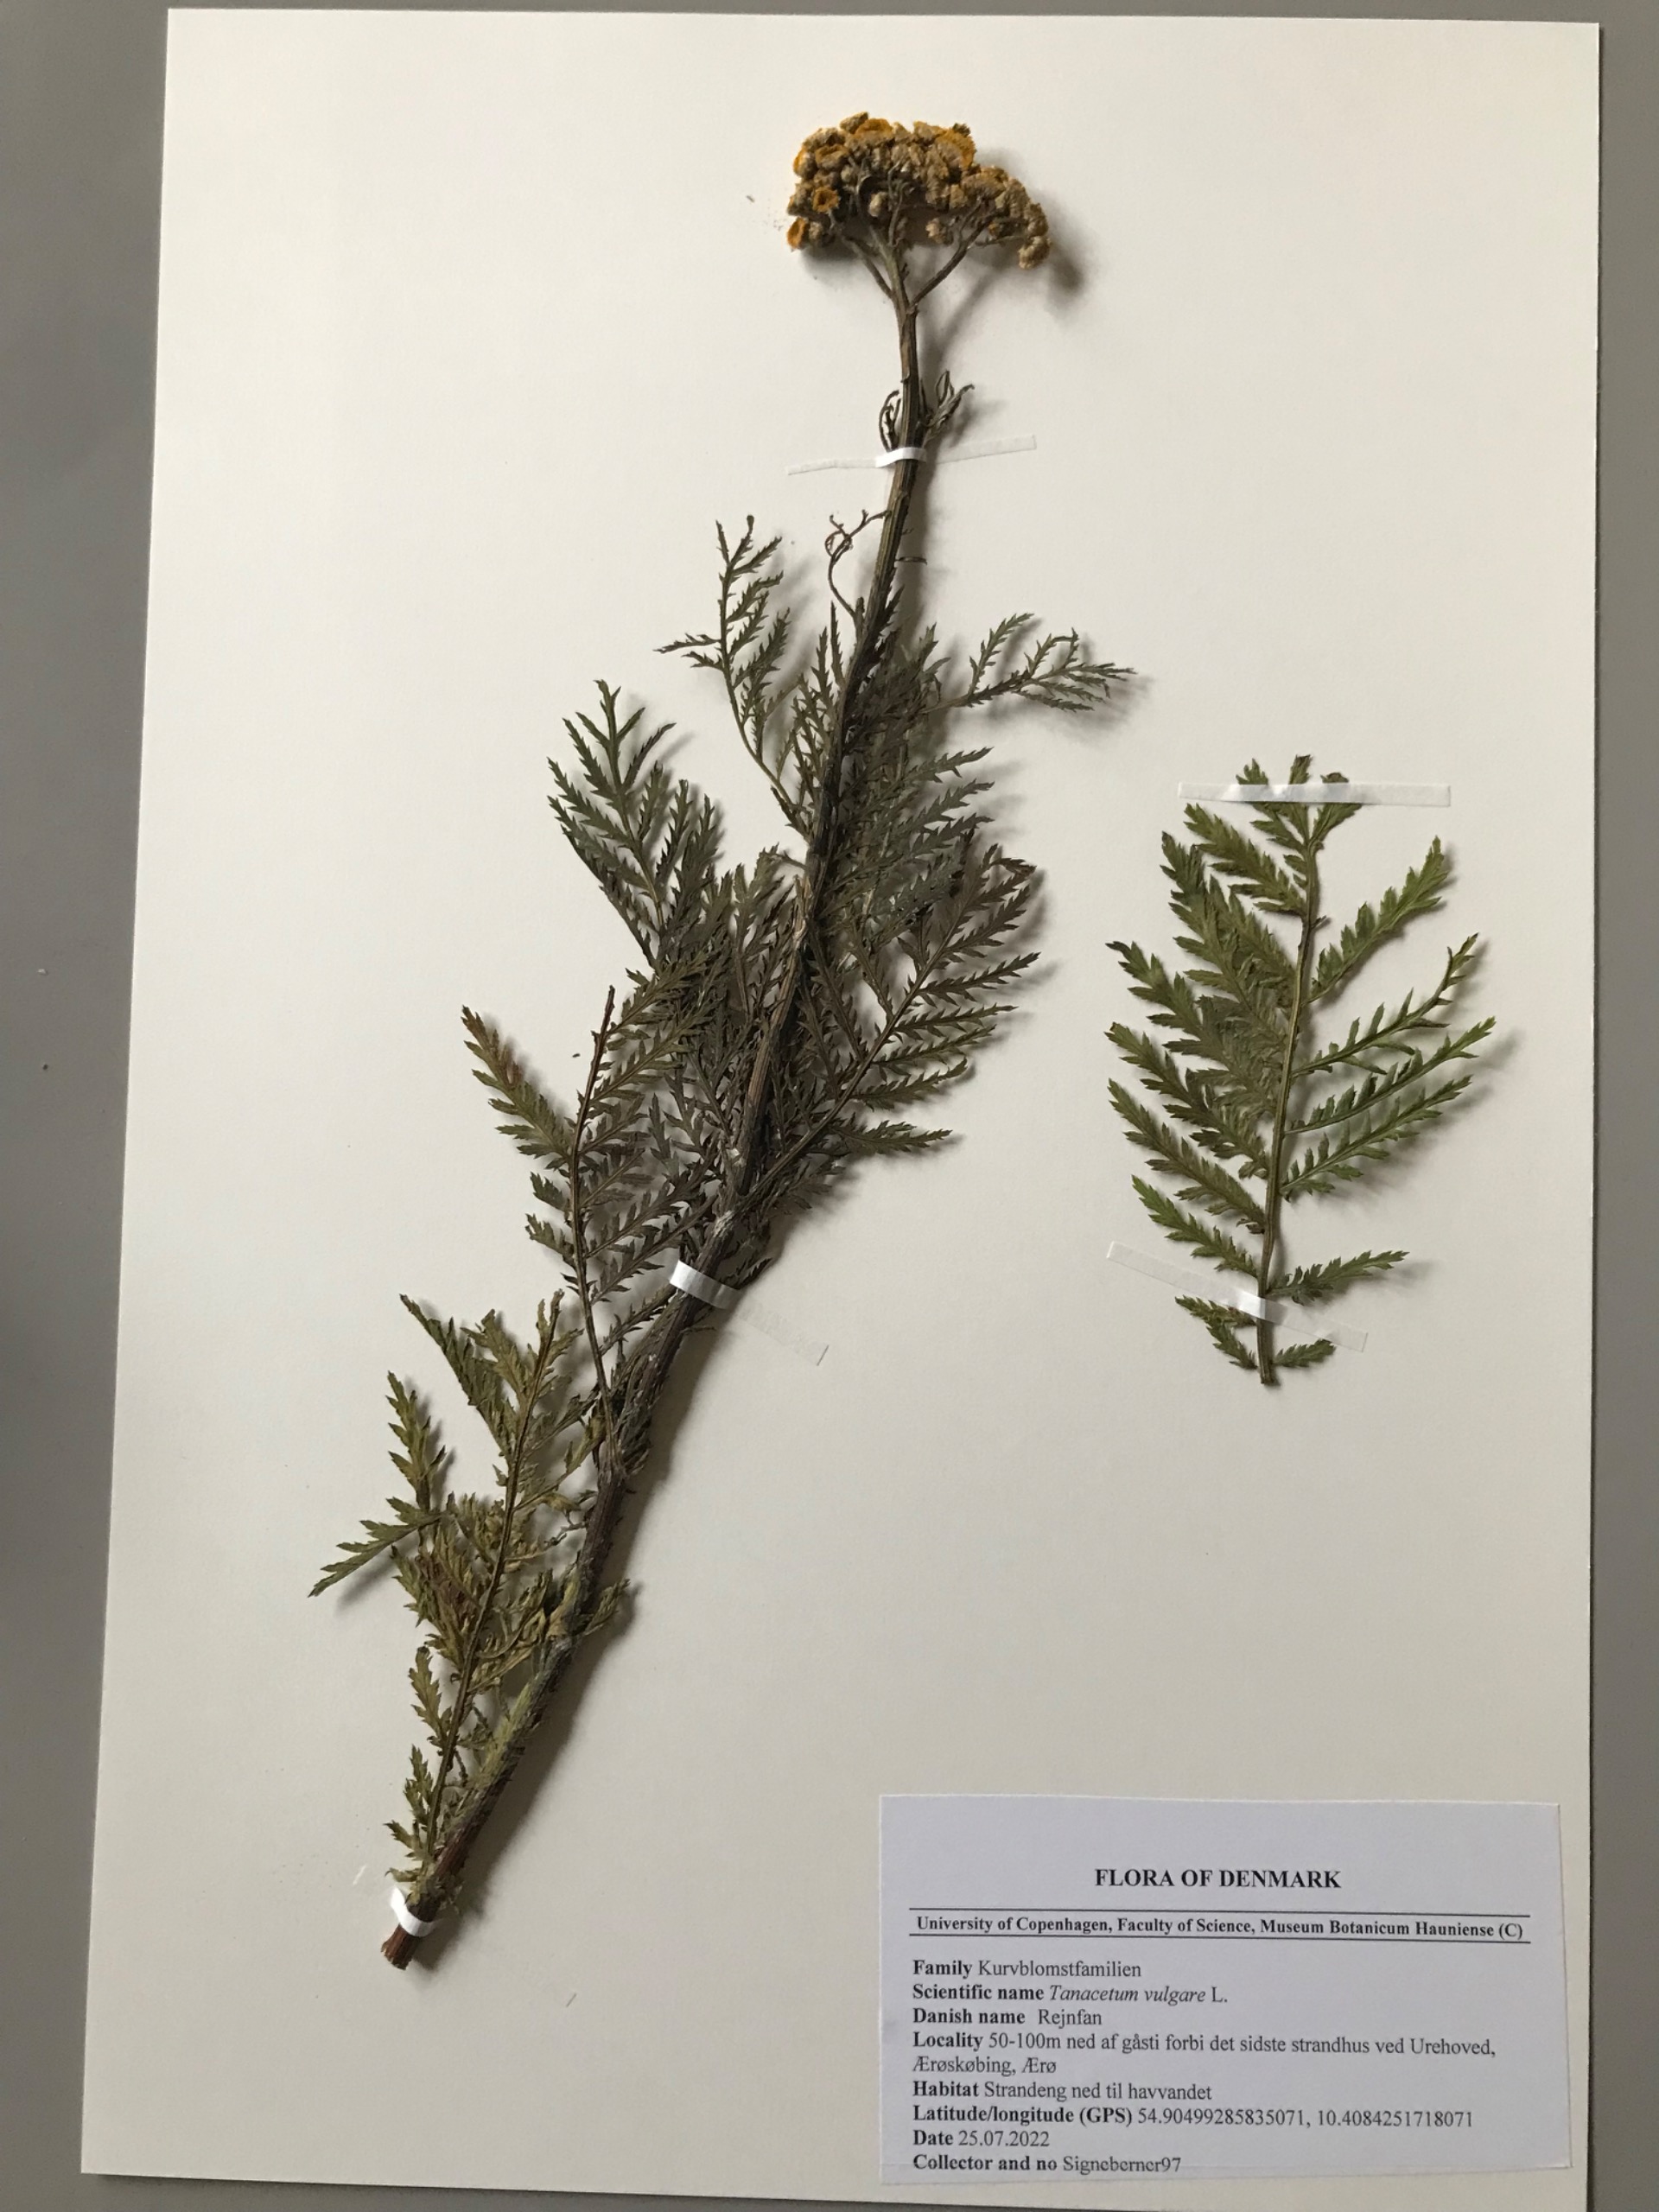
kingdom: Plantae
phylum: Tracheophyta
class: Magnoliopsida
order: Asterales
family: Asteraceae
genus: Tanacetum
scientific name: Tanacetum vulgare
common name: Rejnfan
